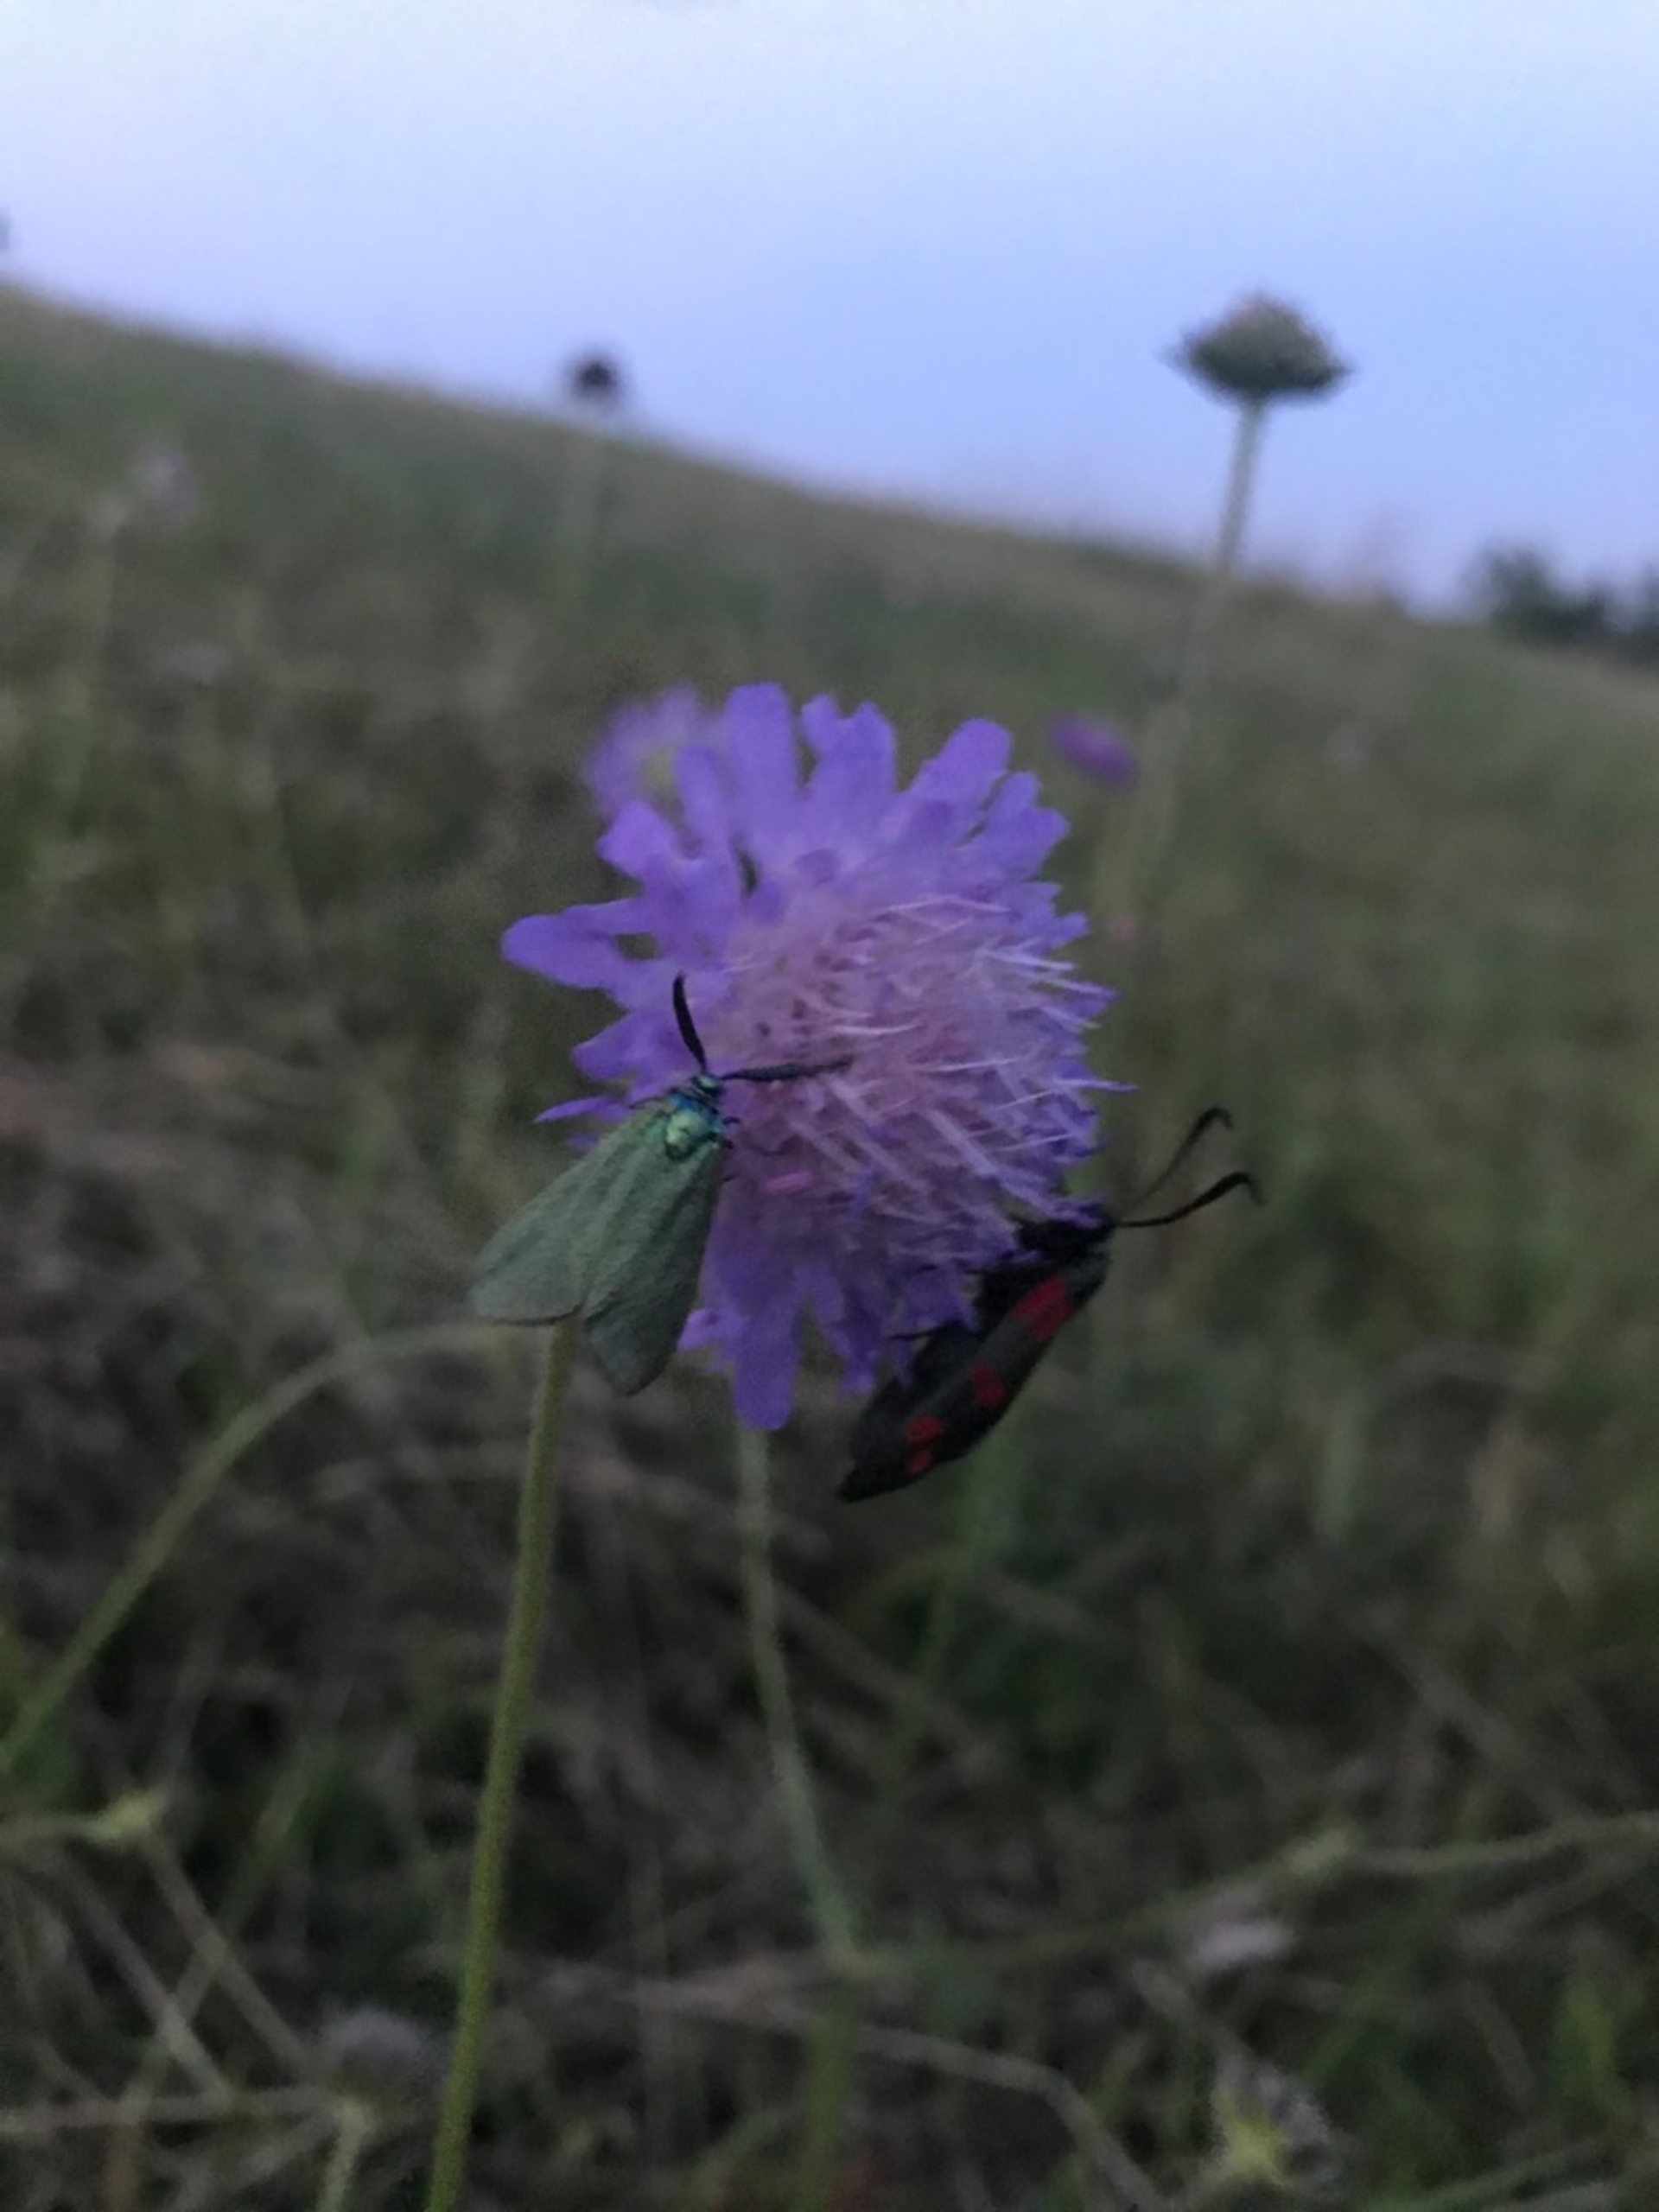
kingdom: Animalia
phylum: Arthropoda
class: Insecta
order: Lepidoptera
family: Zygaenidae
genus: Zygaena
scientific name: Zygaena filipendulae
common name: Seksplettet køllesværmer
